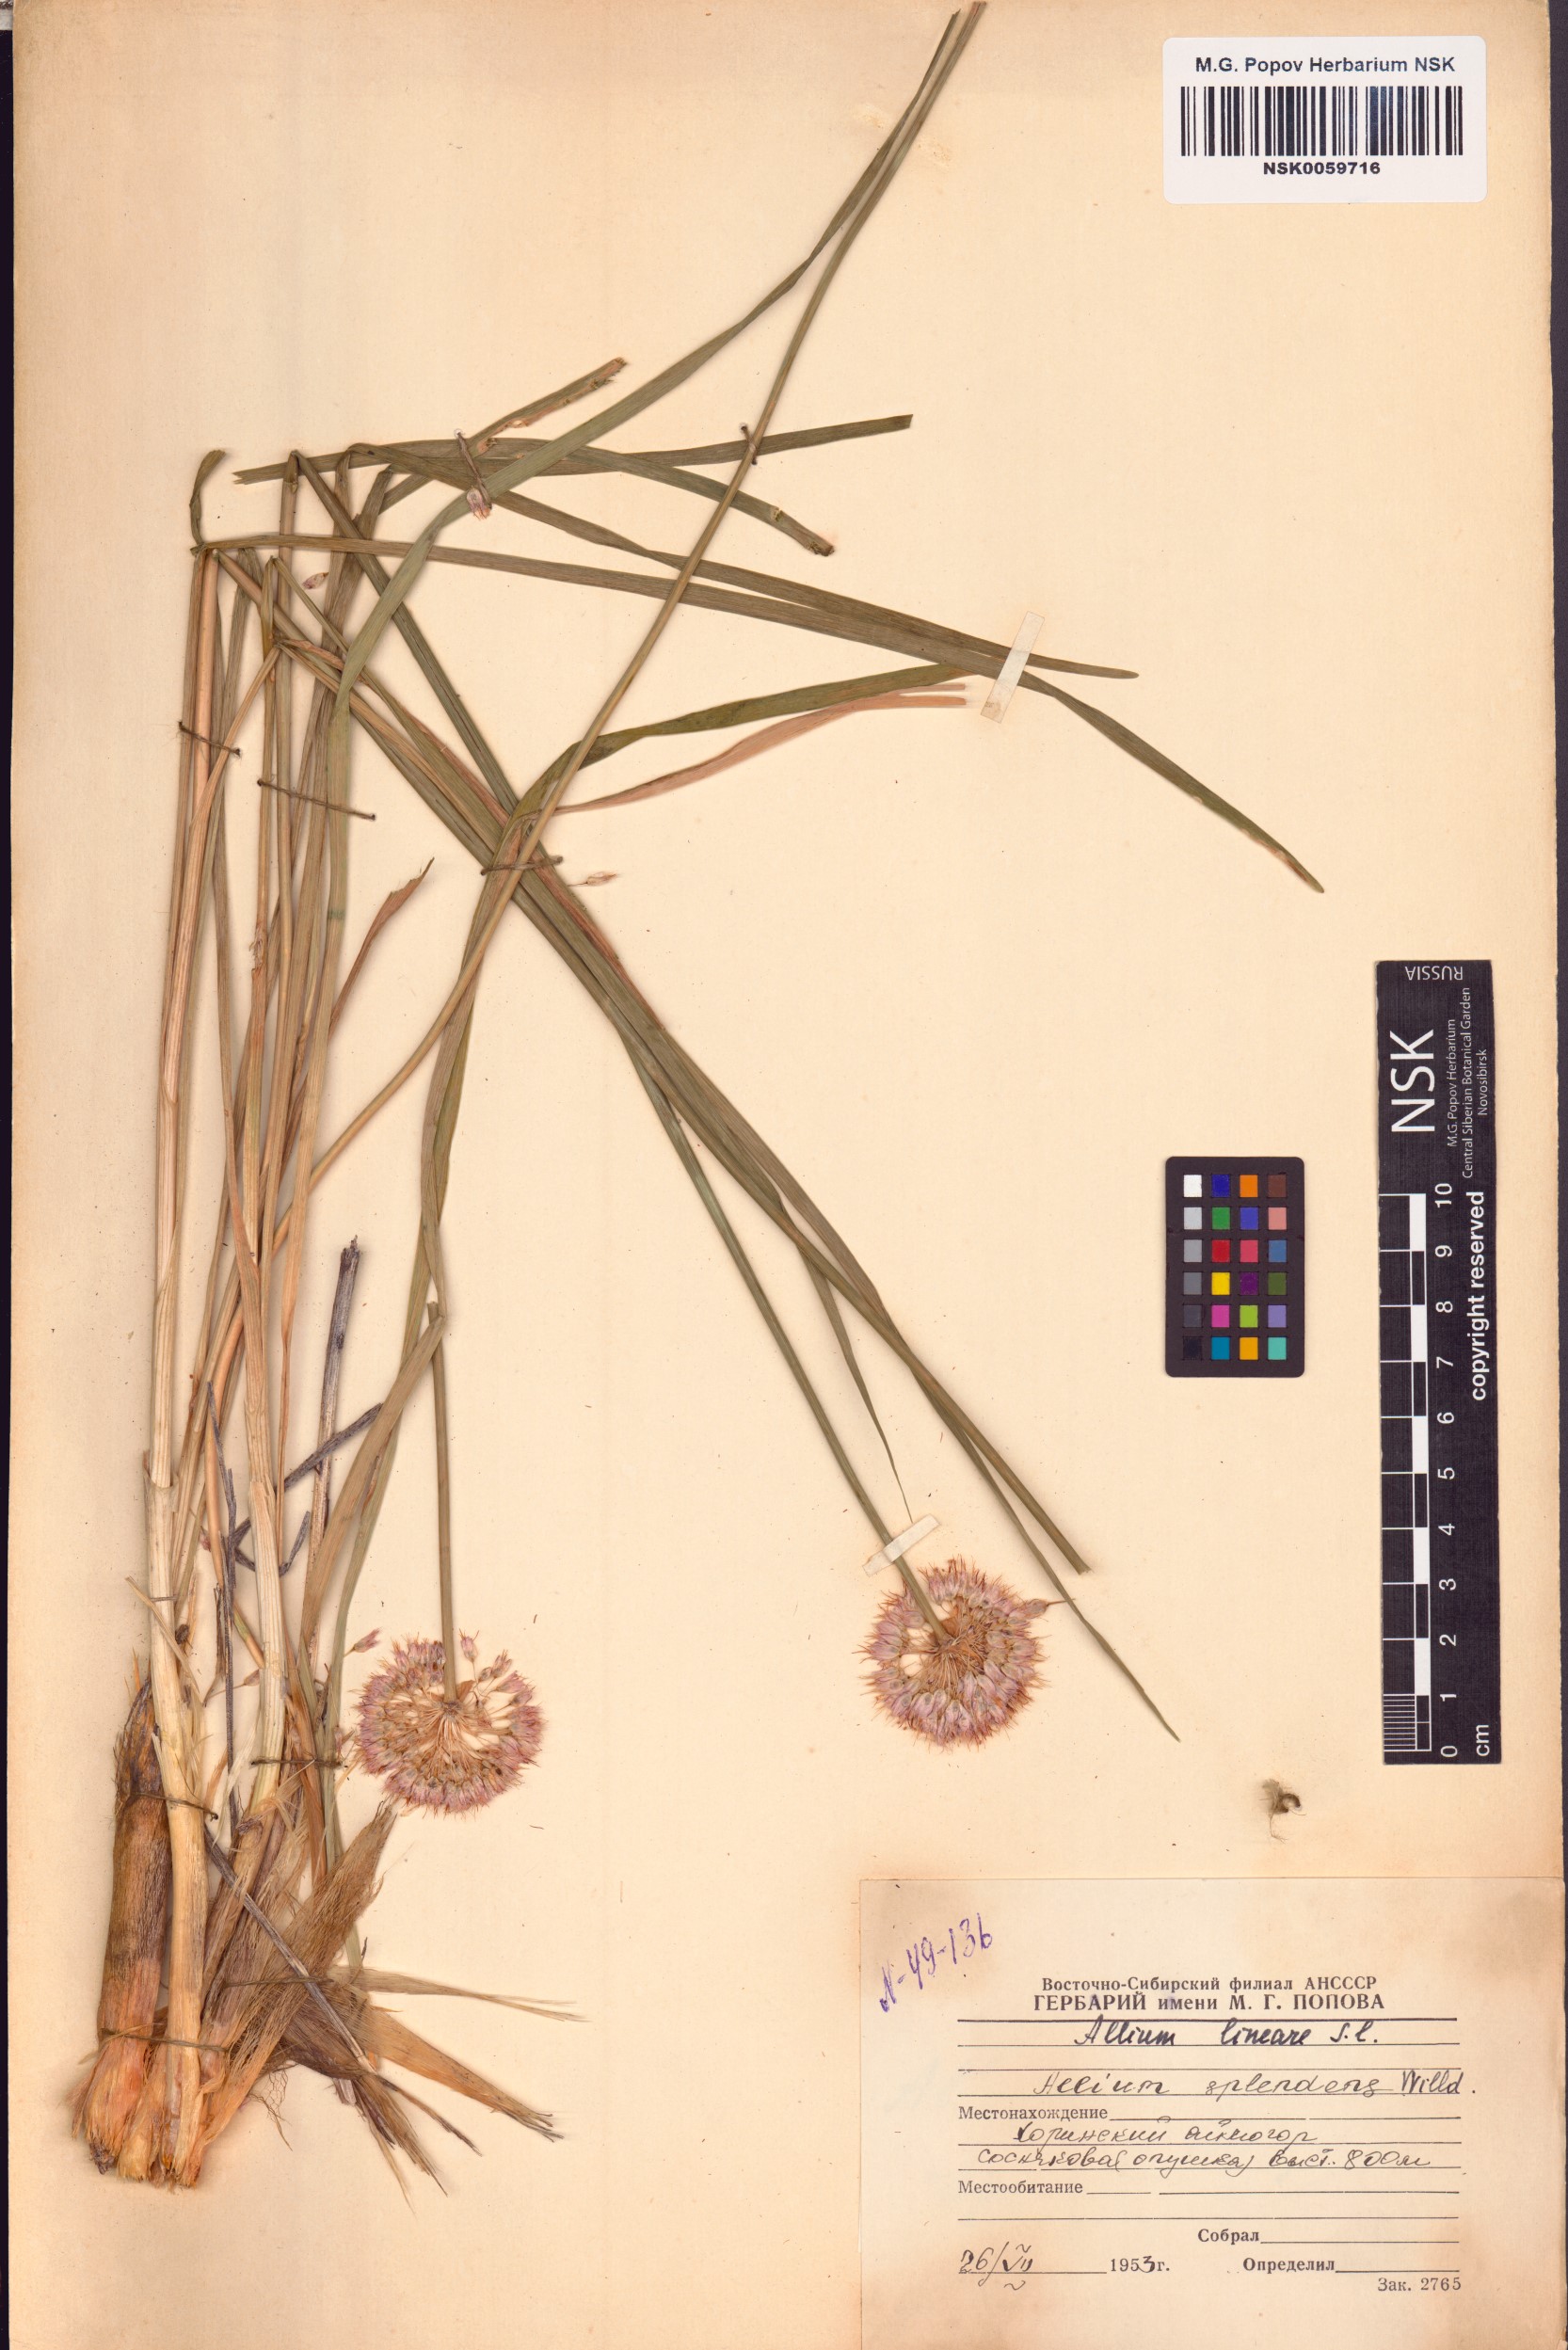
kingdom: Plantae
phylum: Tracheophyta
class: Liliopsida
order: Asparagales
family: Amaryllidaceae
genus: Allium
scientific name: Allium splendens
